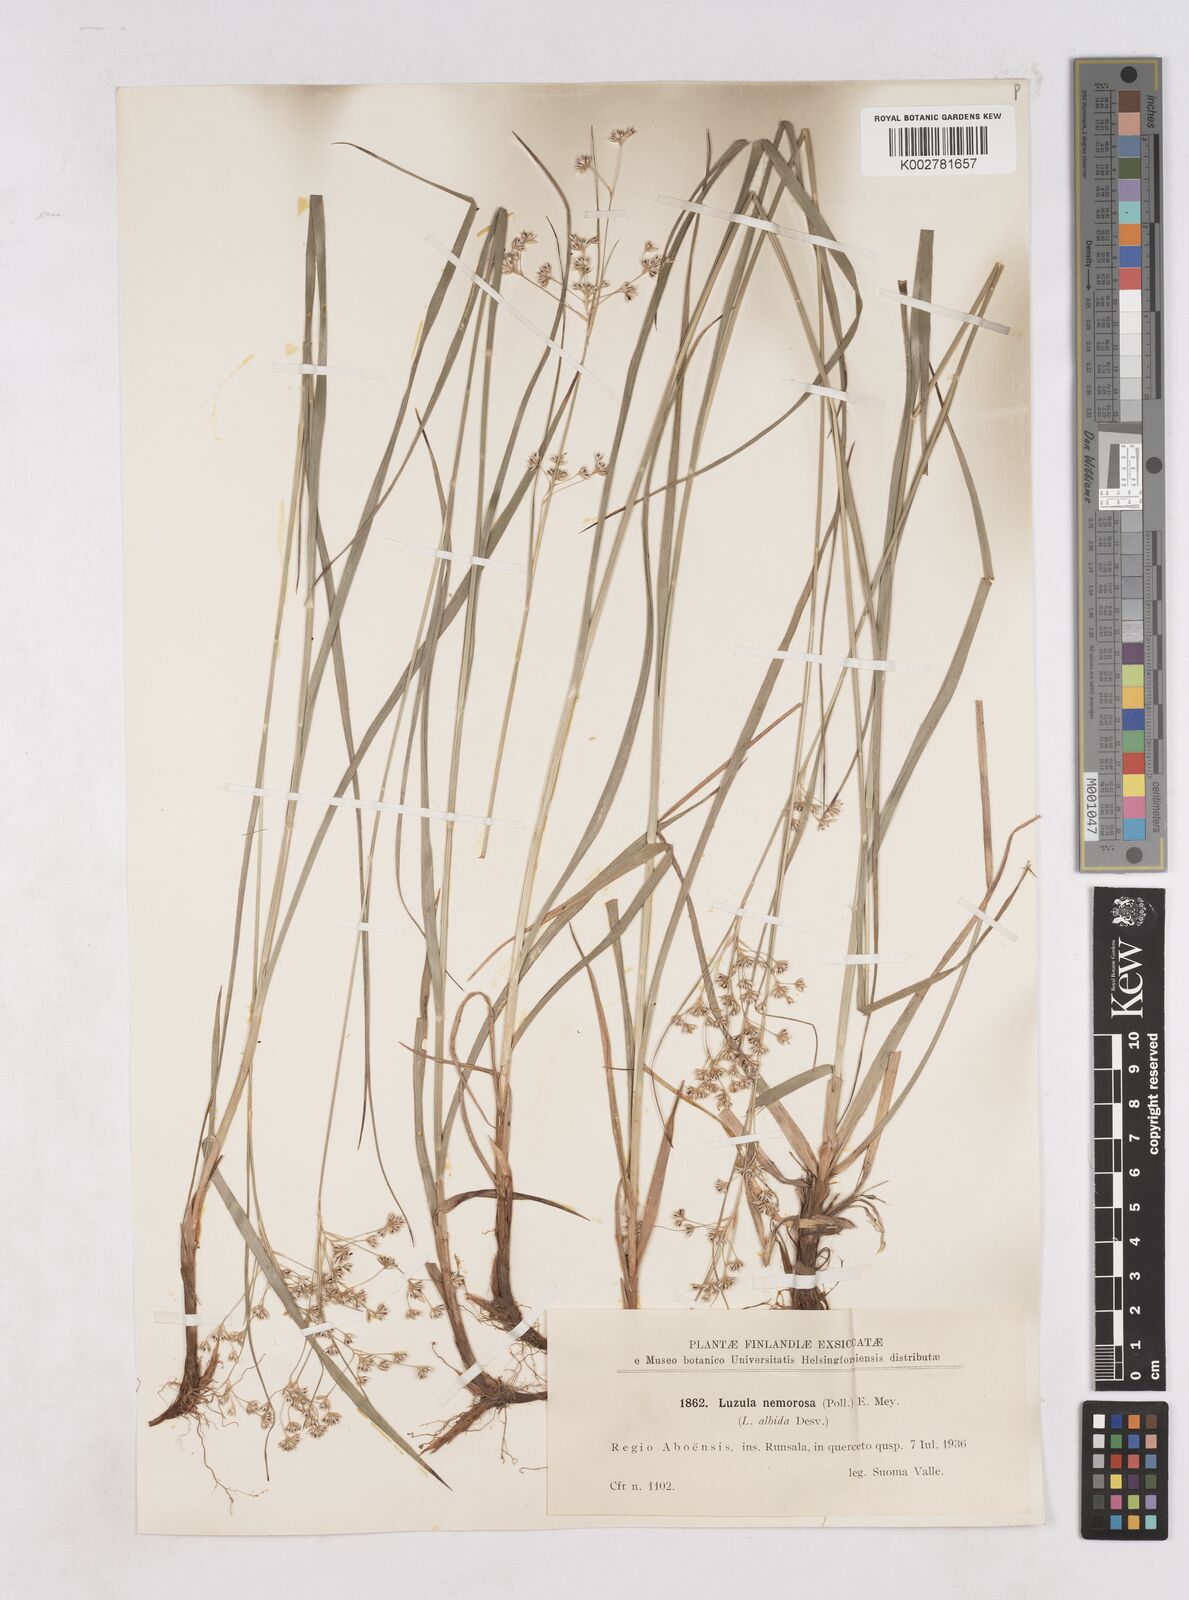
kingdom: Plantae
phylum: Tracheophyta
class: Liliopsida
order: Poales
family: Juncaceae
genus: Luzula
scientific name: Luzula luzuloides
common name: White wood-rush
